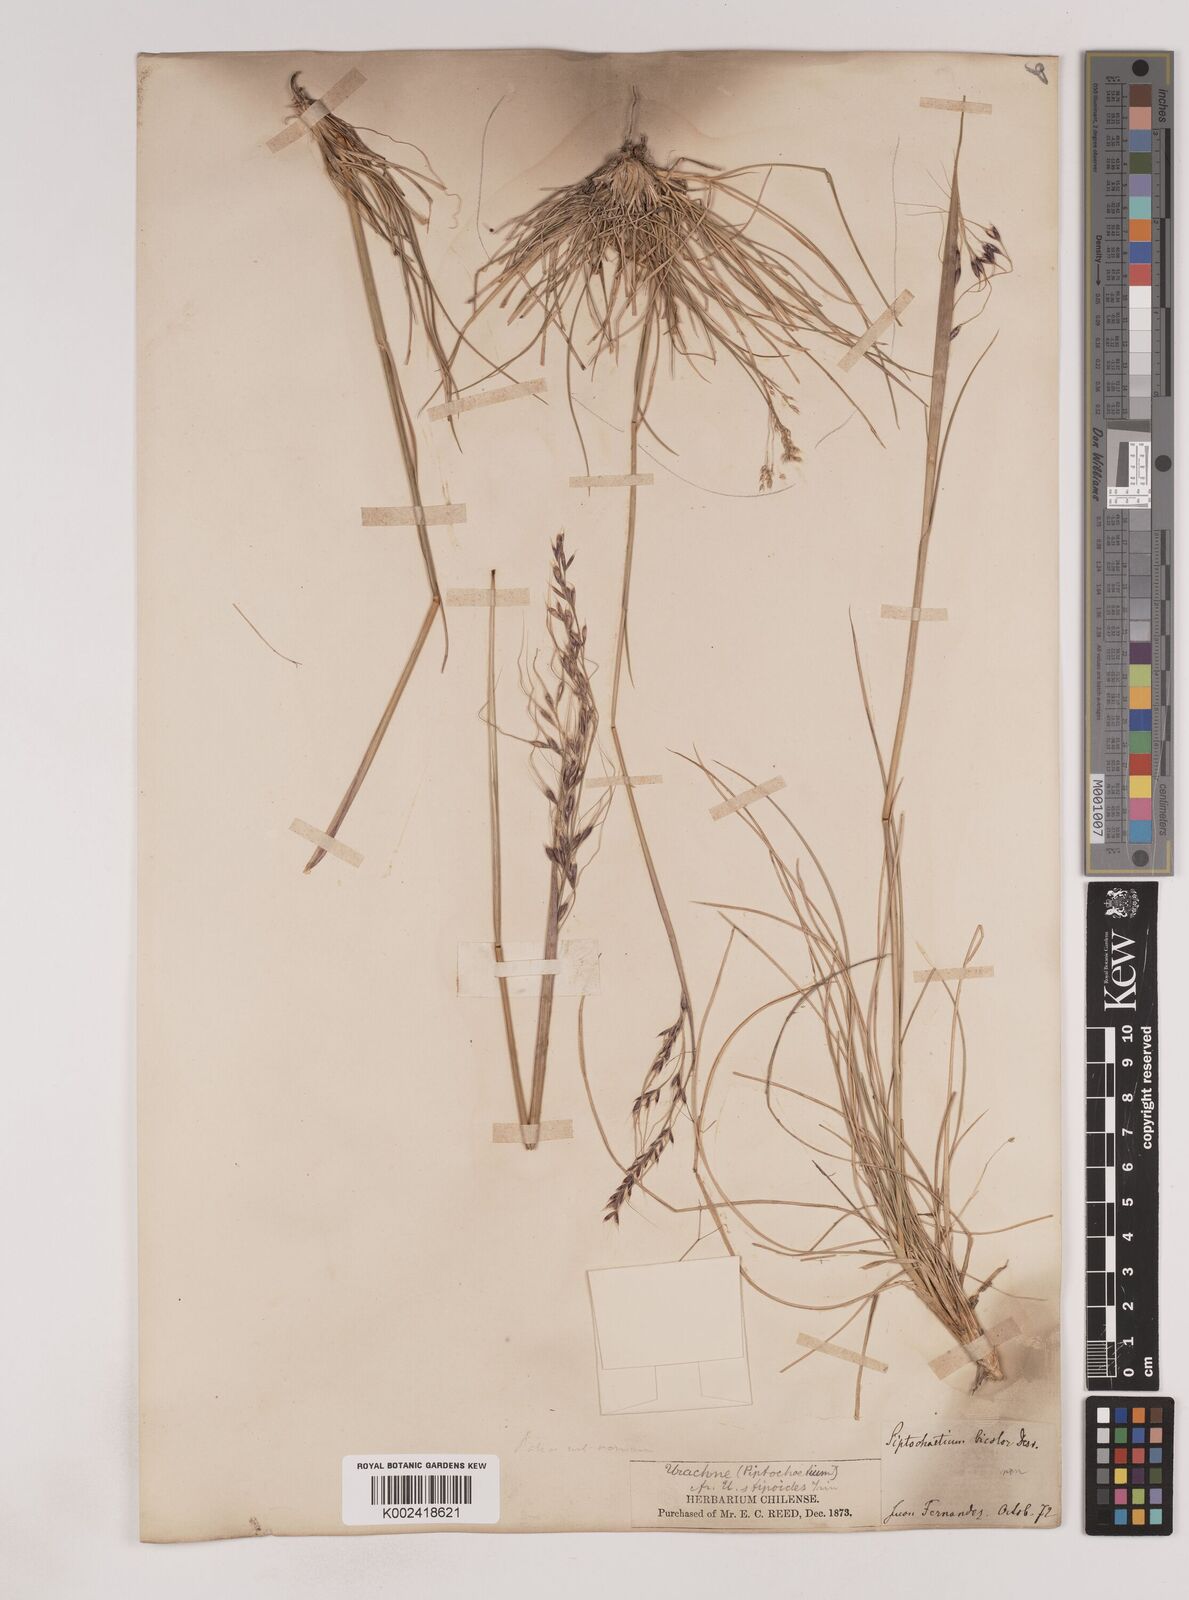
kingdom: Plantae
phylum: Tracheophyta
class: Liliopsida
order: Poales
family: Poaceae
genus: Piptochaetium
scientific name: Piptochaetium
